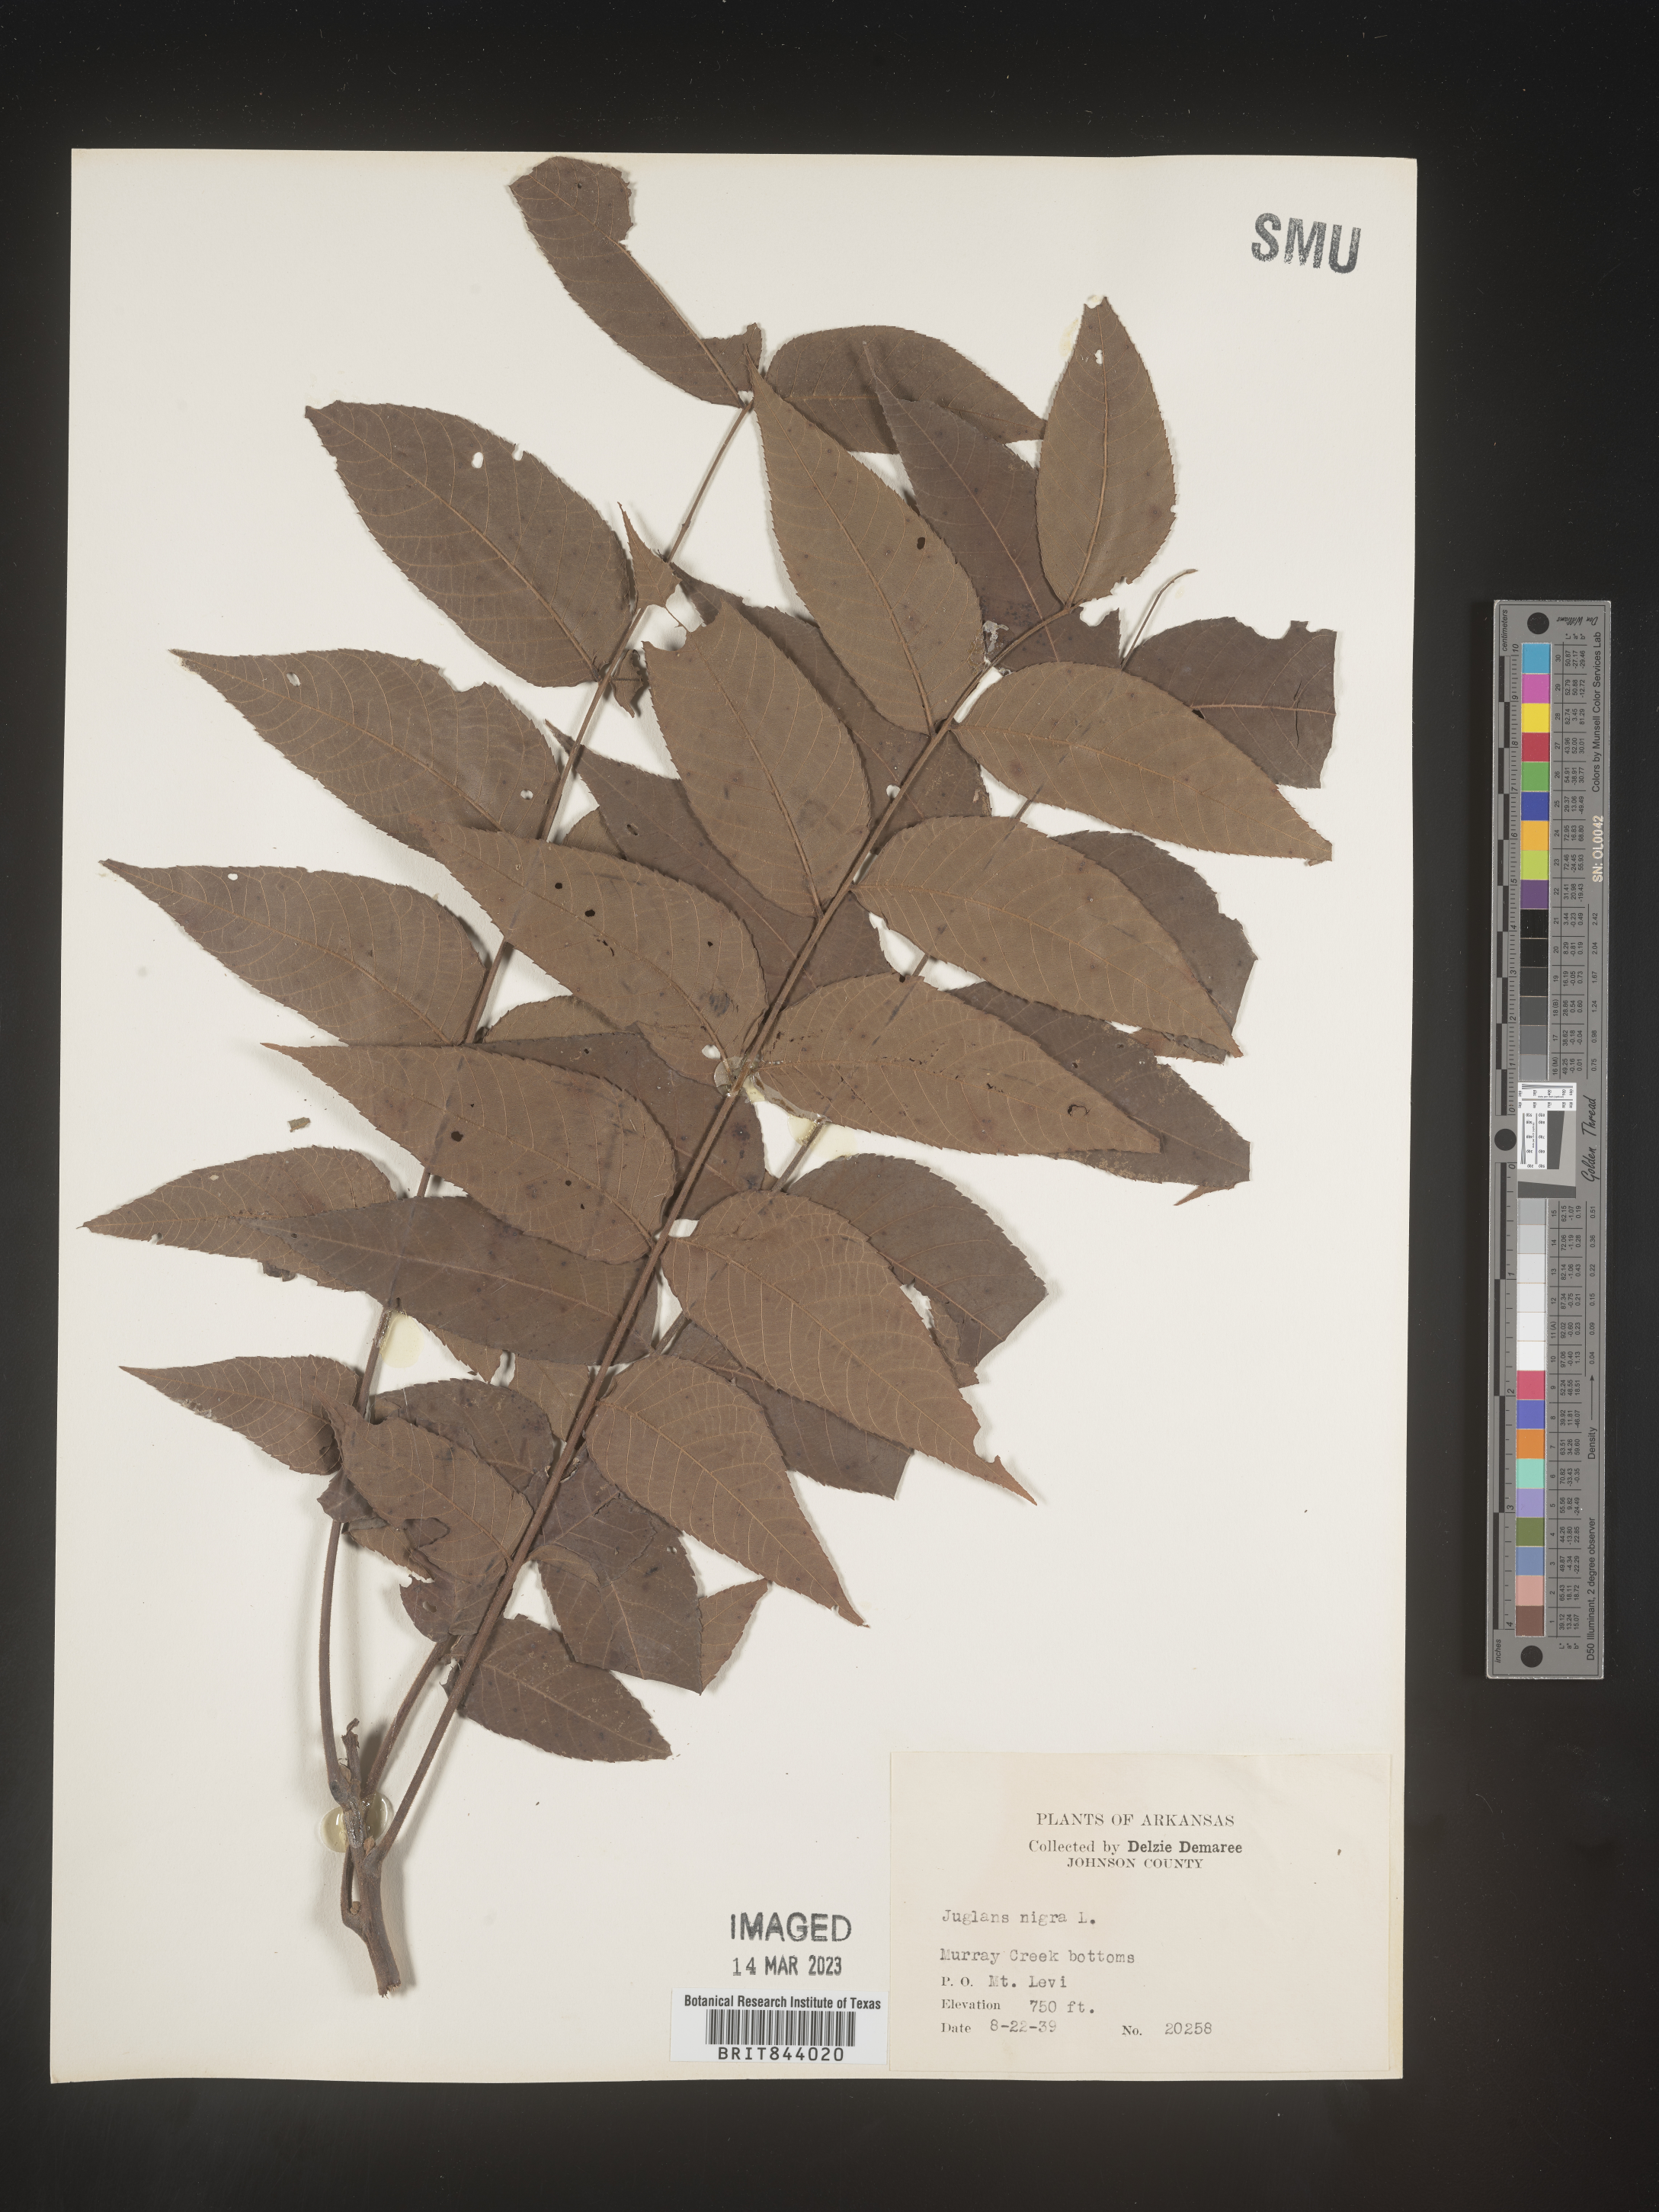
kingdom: Plantae
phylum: Tracheophyta
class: Magnoliopsida
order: Fagales
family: Juglandaceae
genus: Juglans
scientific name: Juglans nigra
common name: Black walnut
